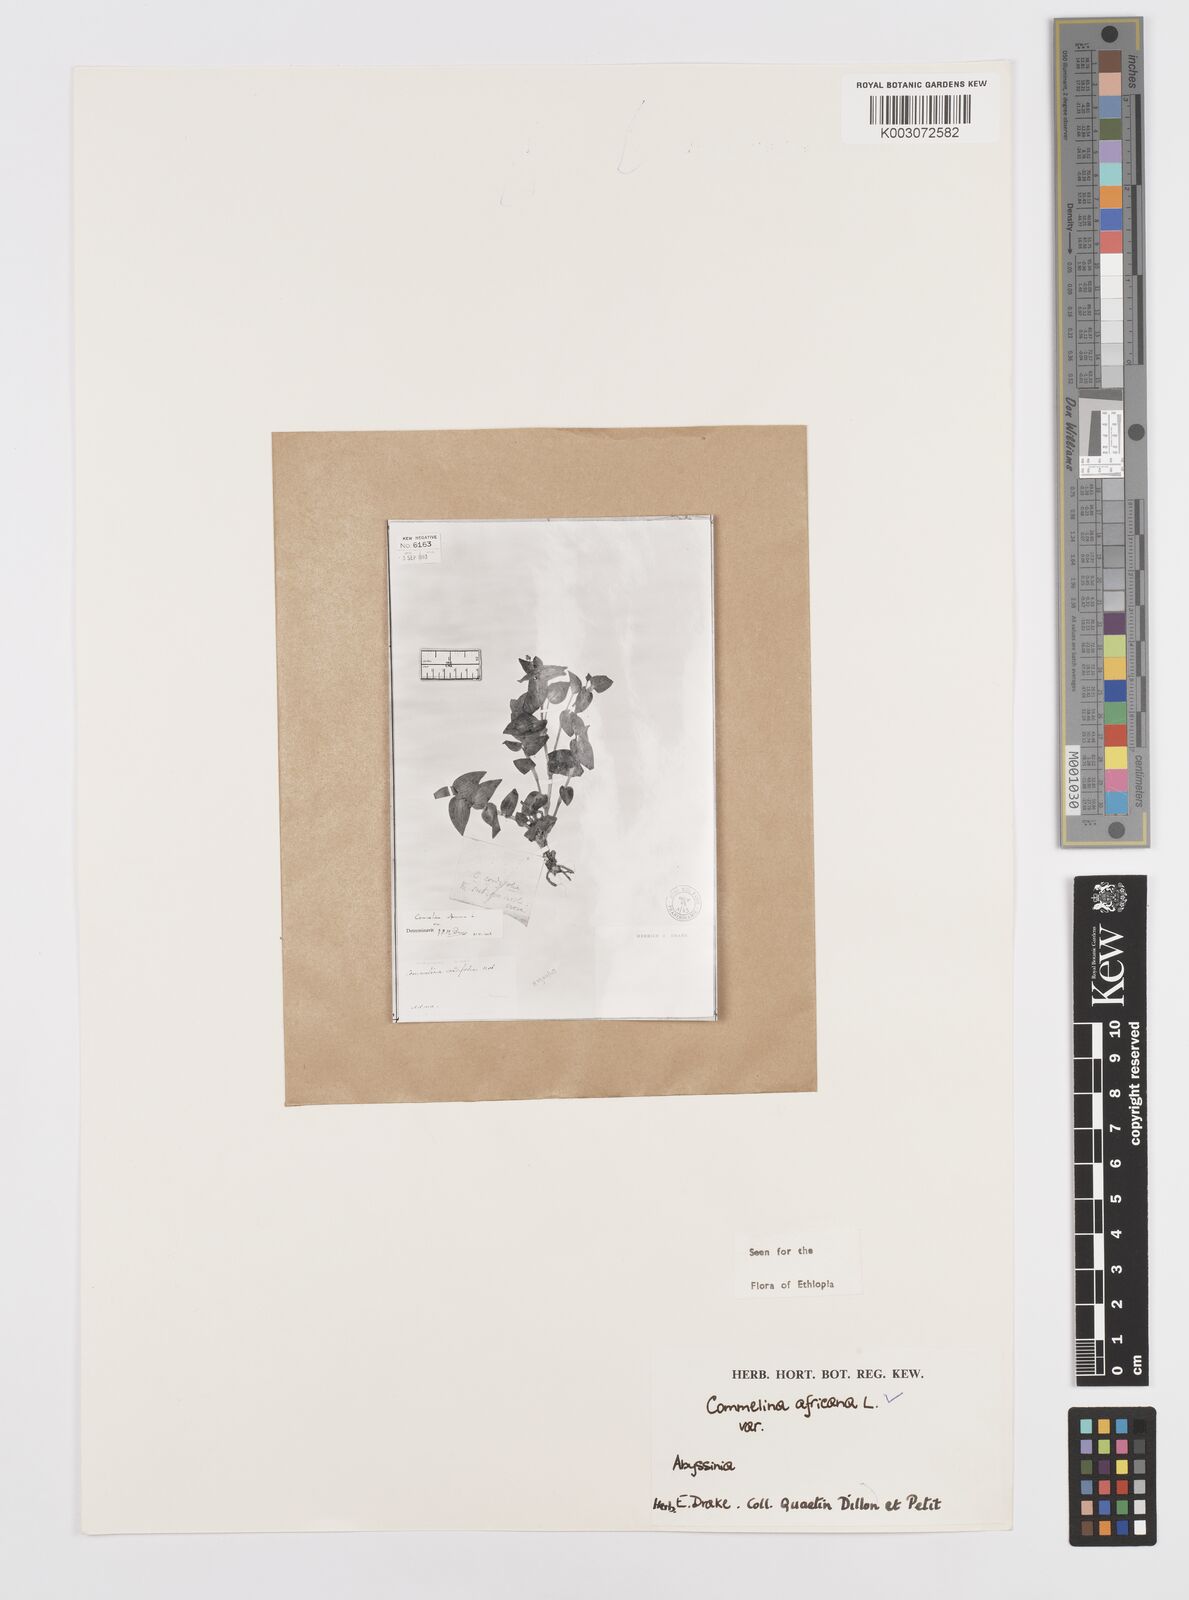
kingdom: Plantae
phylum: Tracheophyta
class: Liliopsida
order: Commelinales
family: Commelinaceae
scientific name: Commelinaceae
